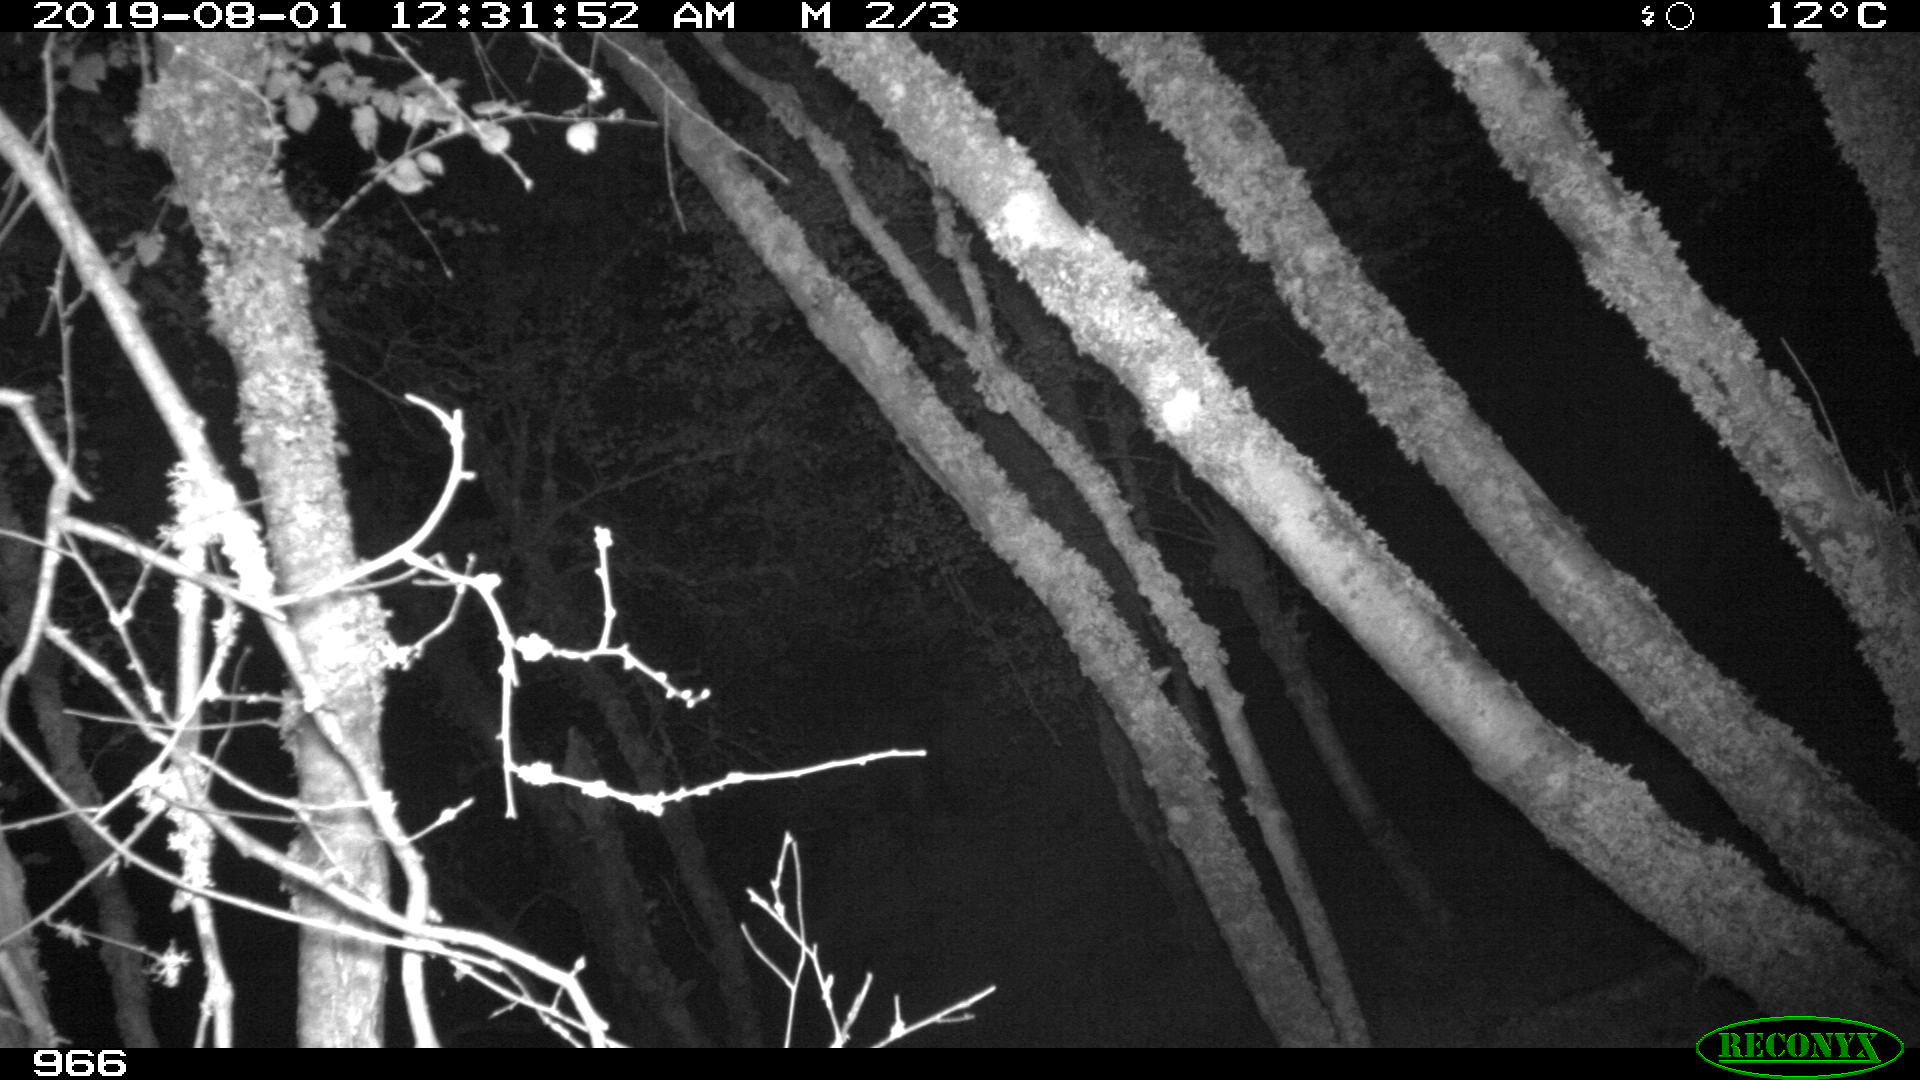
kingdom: Animalia
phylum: Chordata
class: Mammalia
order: Artiodactyla
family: Suidae
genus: Sus
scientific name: Sus scrofa
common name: Wild boar
